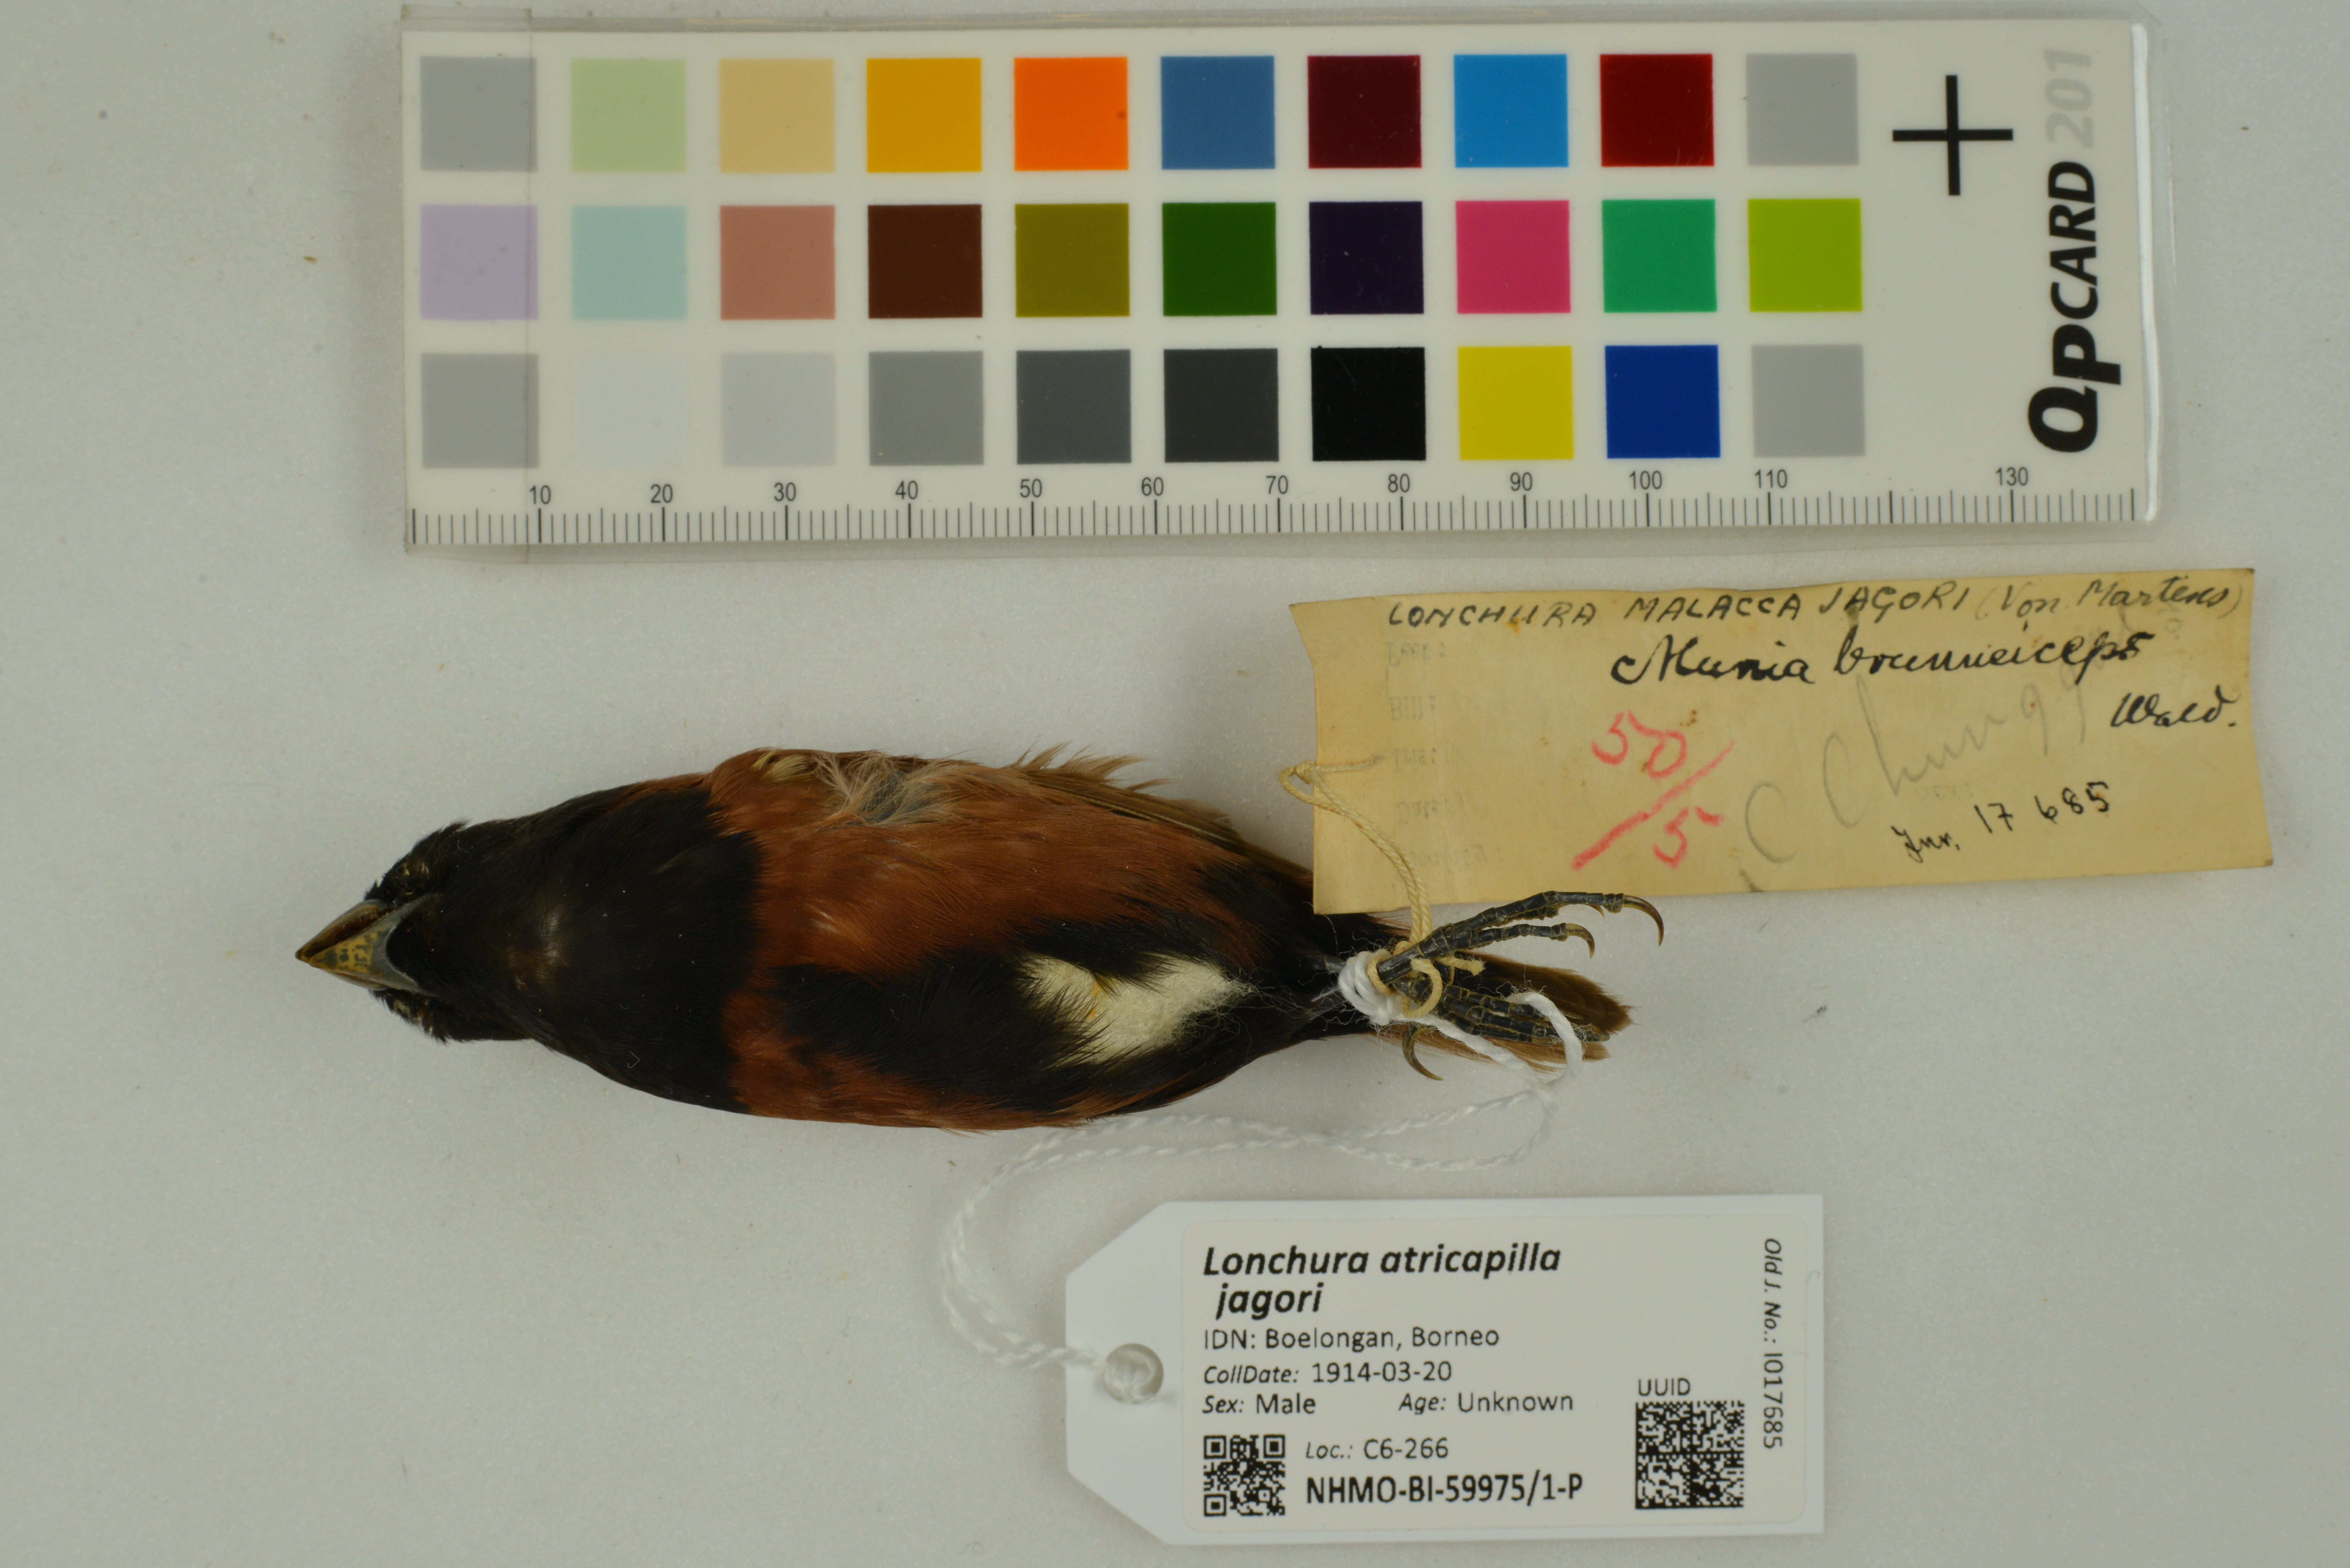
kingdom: Animalia
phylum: Chordata
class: Aves
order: Passeriformes
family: Estrildidae
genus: Lonchura
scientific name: Lonchura atricapilla
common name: Chestnut munia
